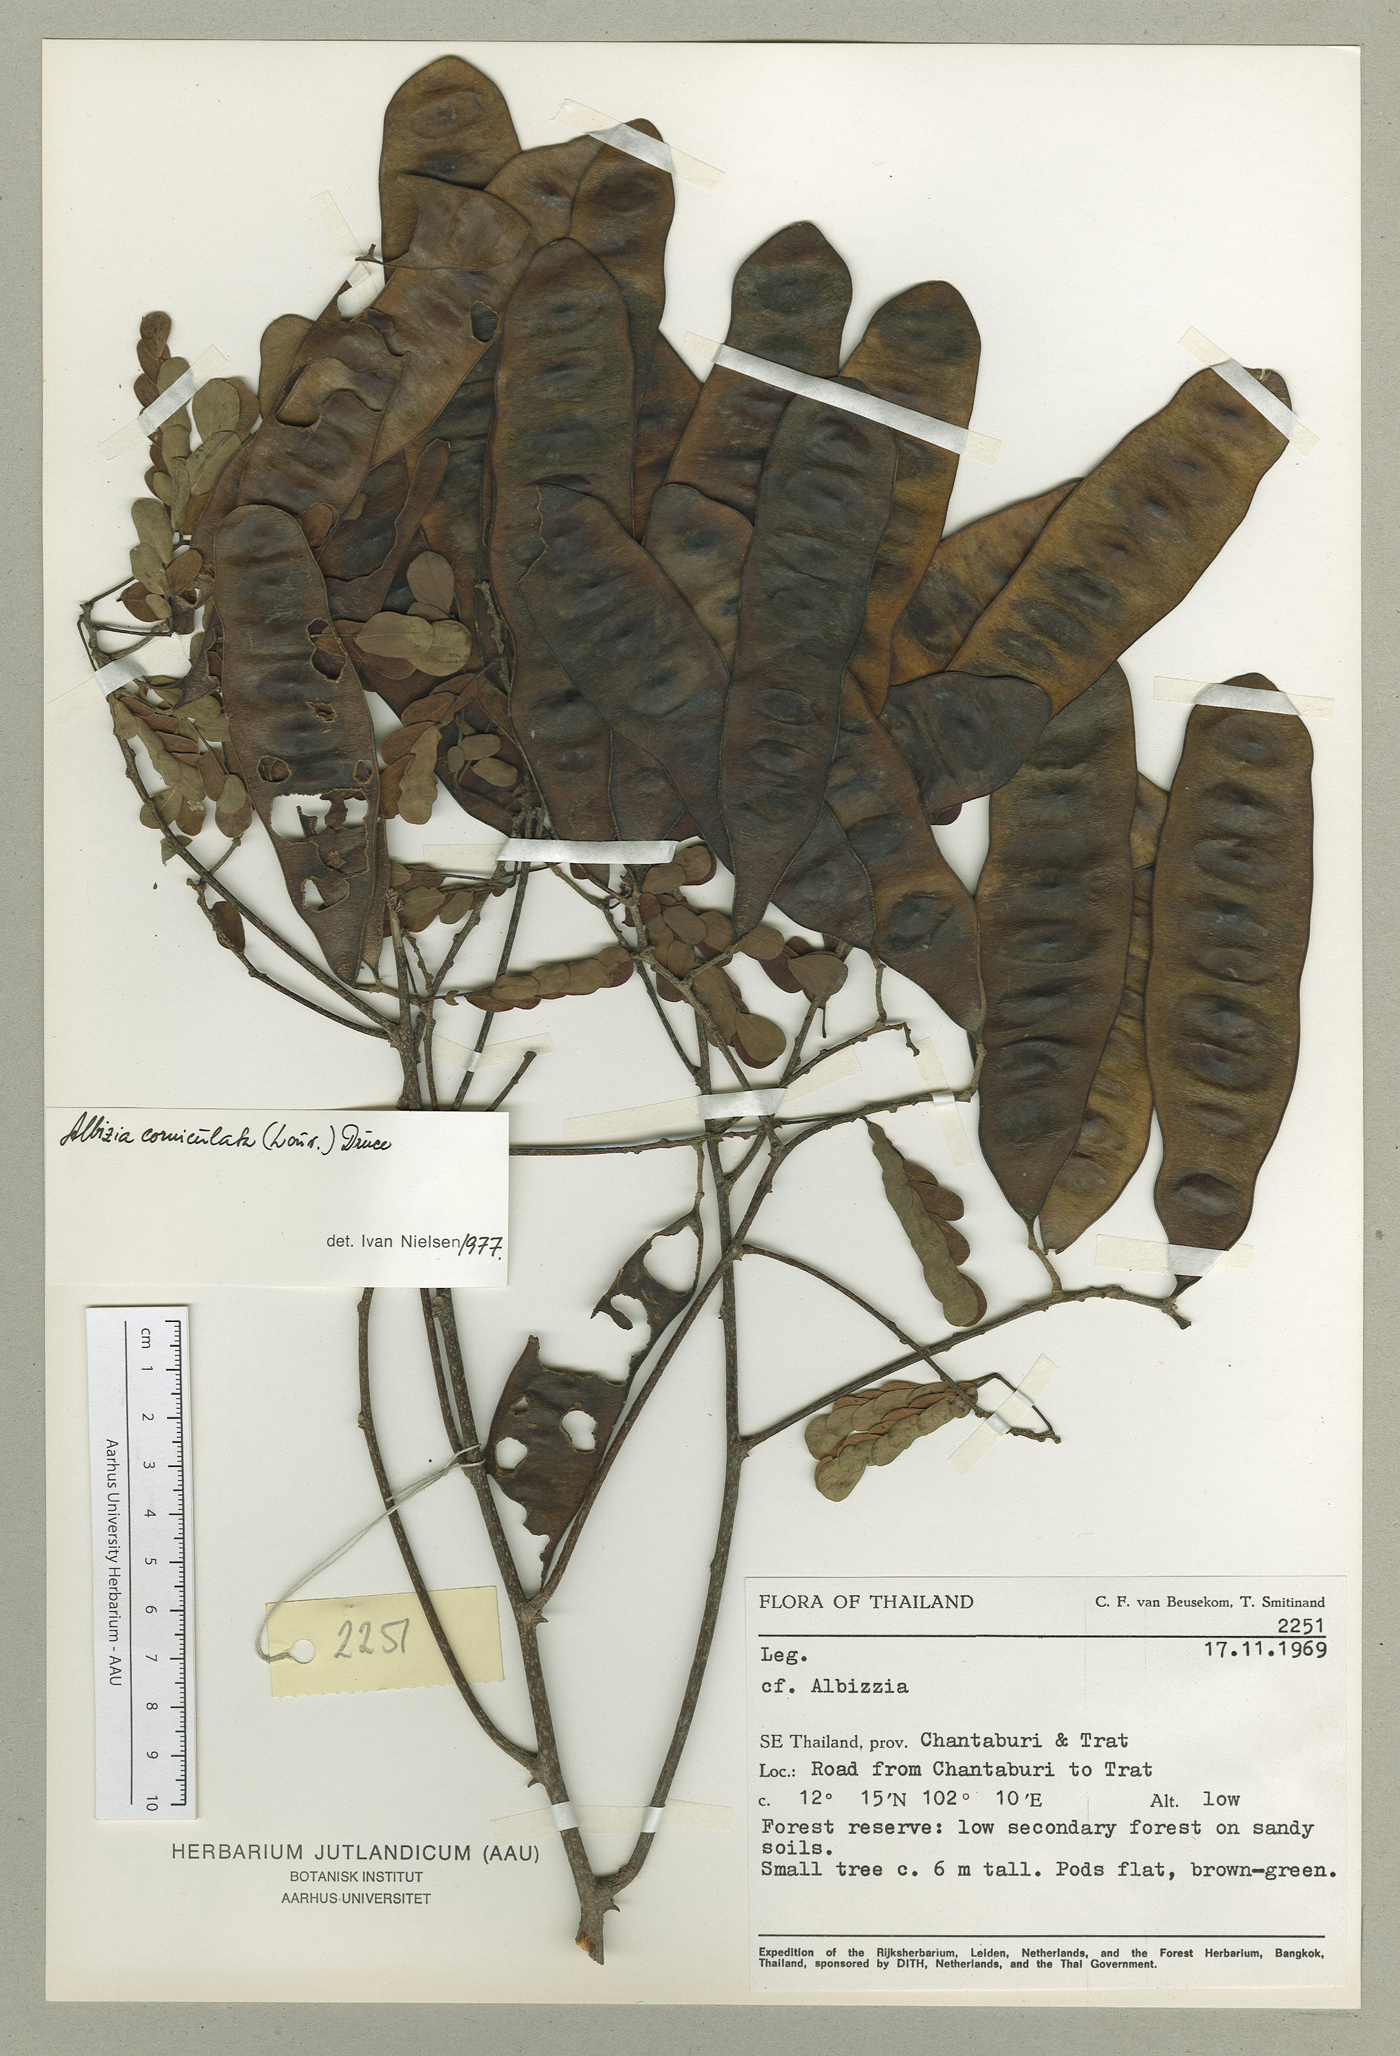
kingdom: Plantae
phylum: Tracheophyta
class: Magnoliopsida
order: Fabales
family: Fabaceae
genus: Albizia
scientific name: Albizia corniculata
